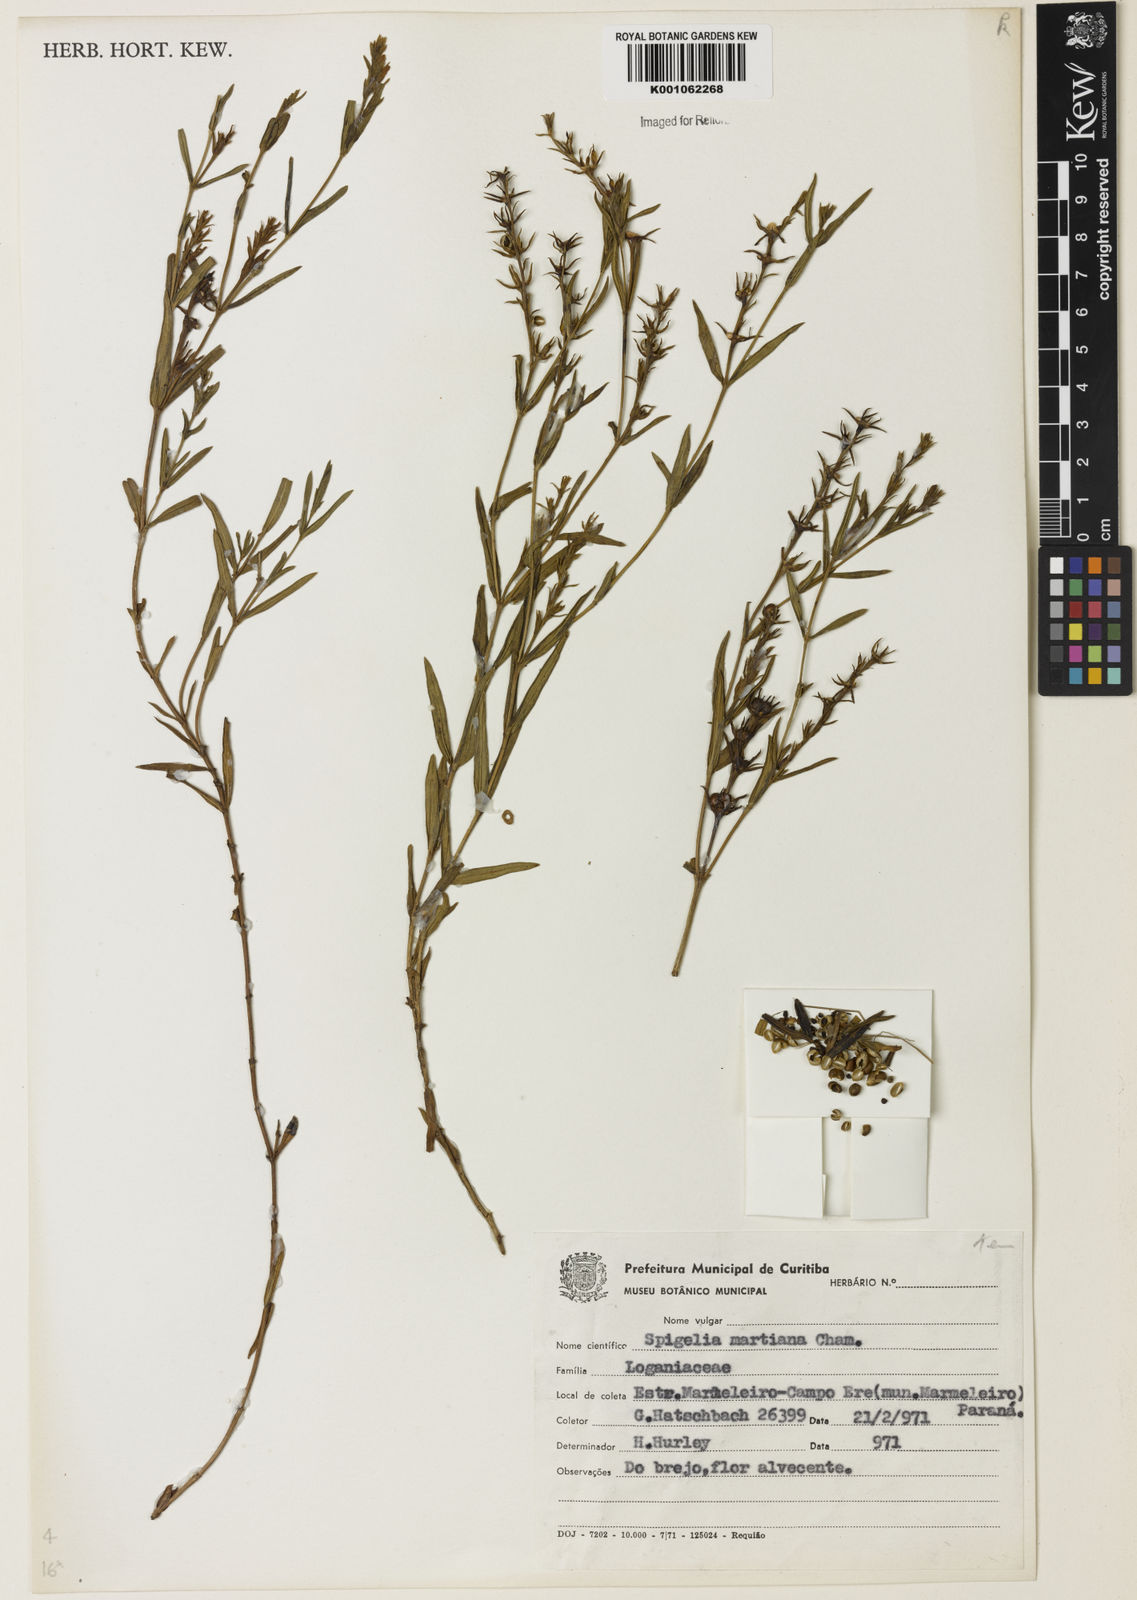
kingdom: Plantae
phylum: Tracheophyta
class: Magnoliopsida
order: Gentianales
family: Loganiaceae
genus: Spigelia
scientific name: Spigelia martiana
